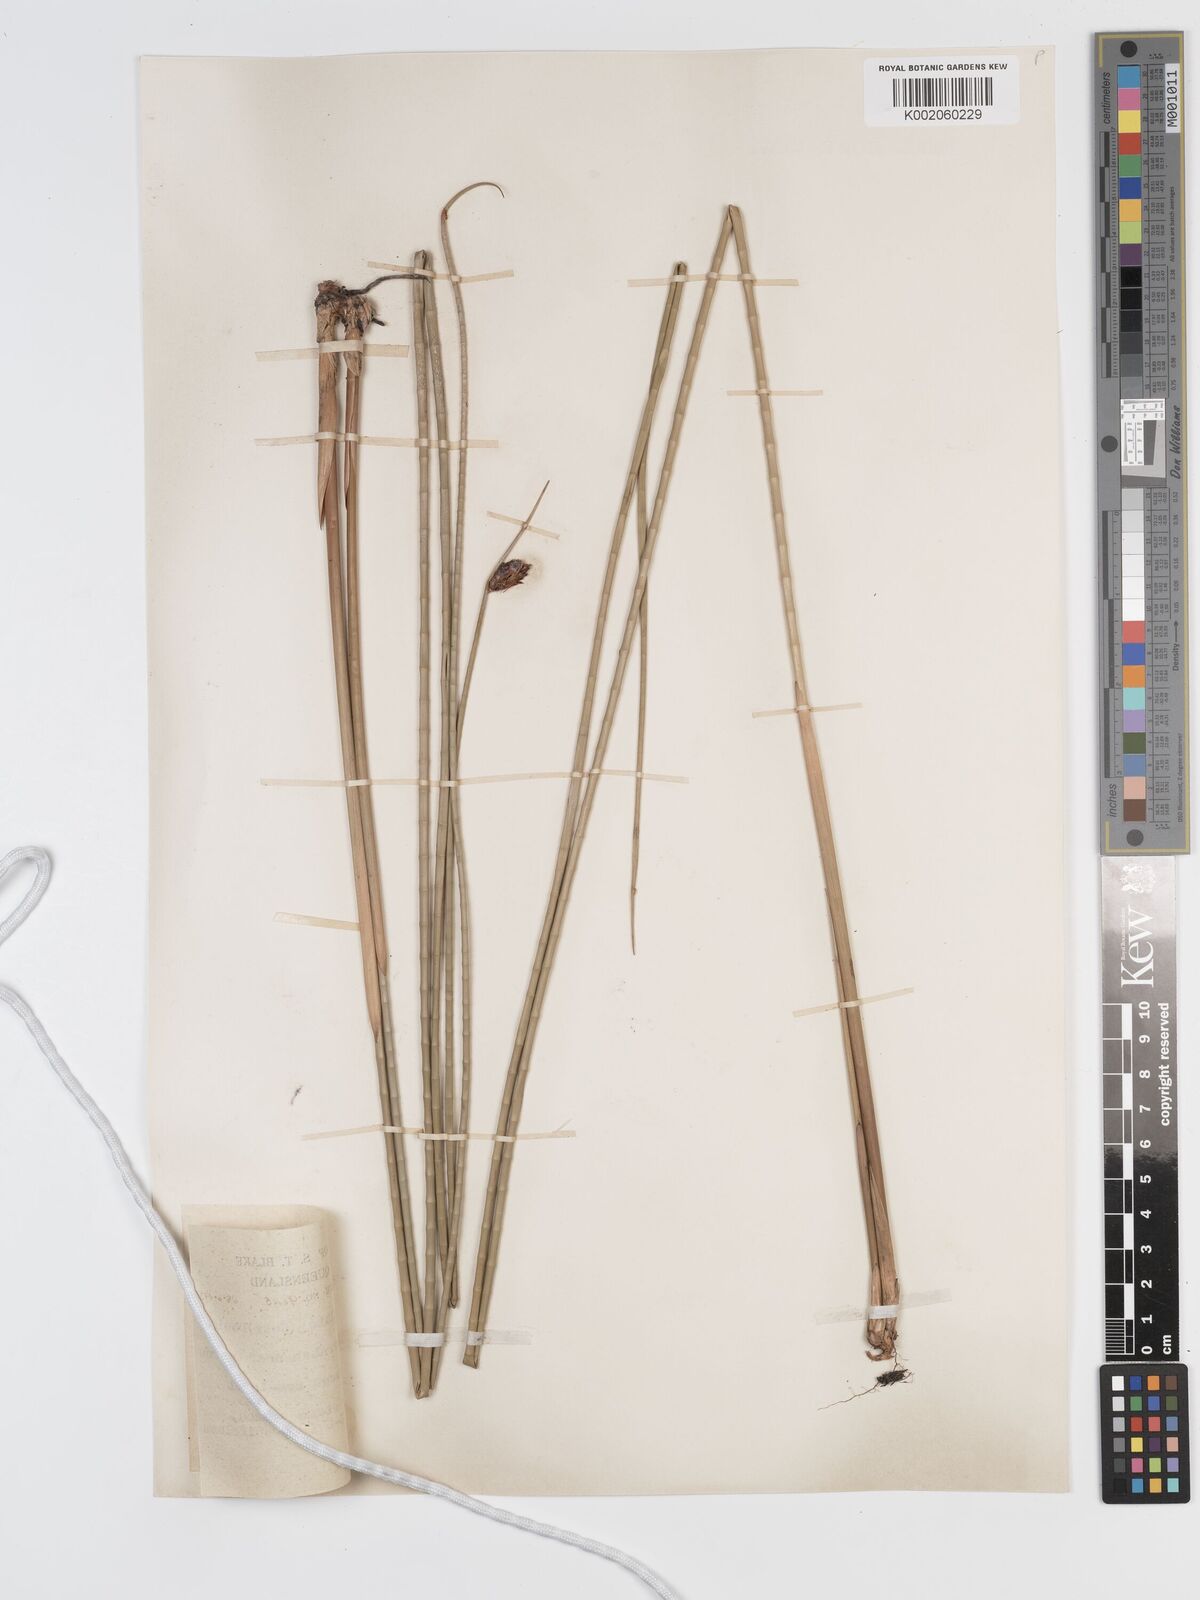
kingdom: Plantae
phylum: Tracheophyta
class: Liliopsida
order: Poales
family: Cyperaceae
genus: Lepironia
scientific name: Lepironia articulata
